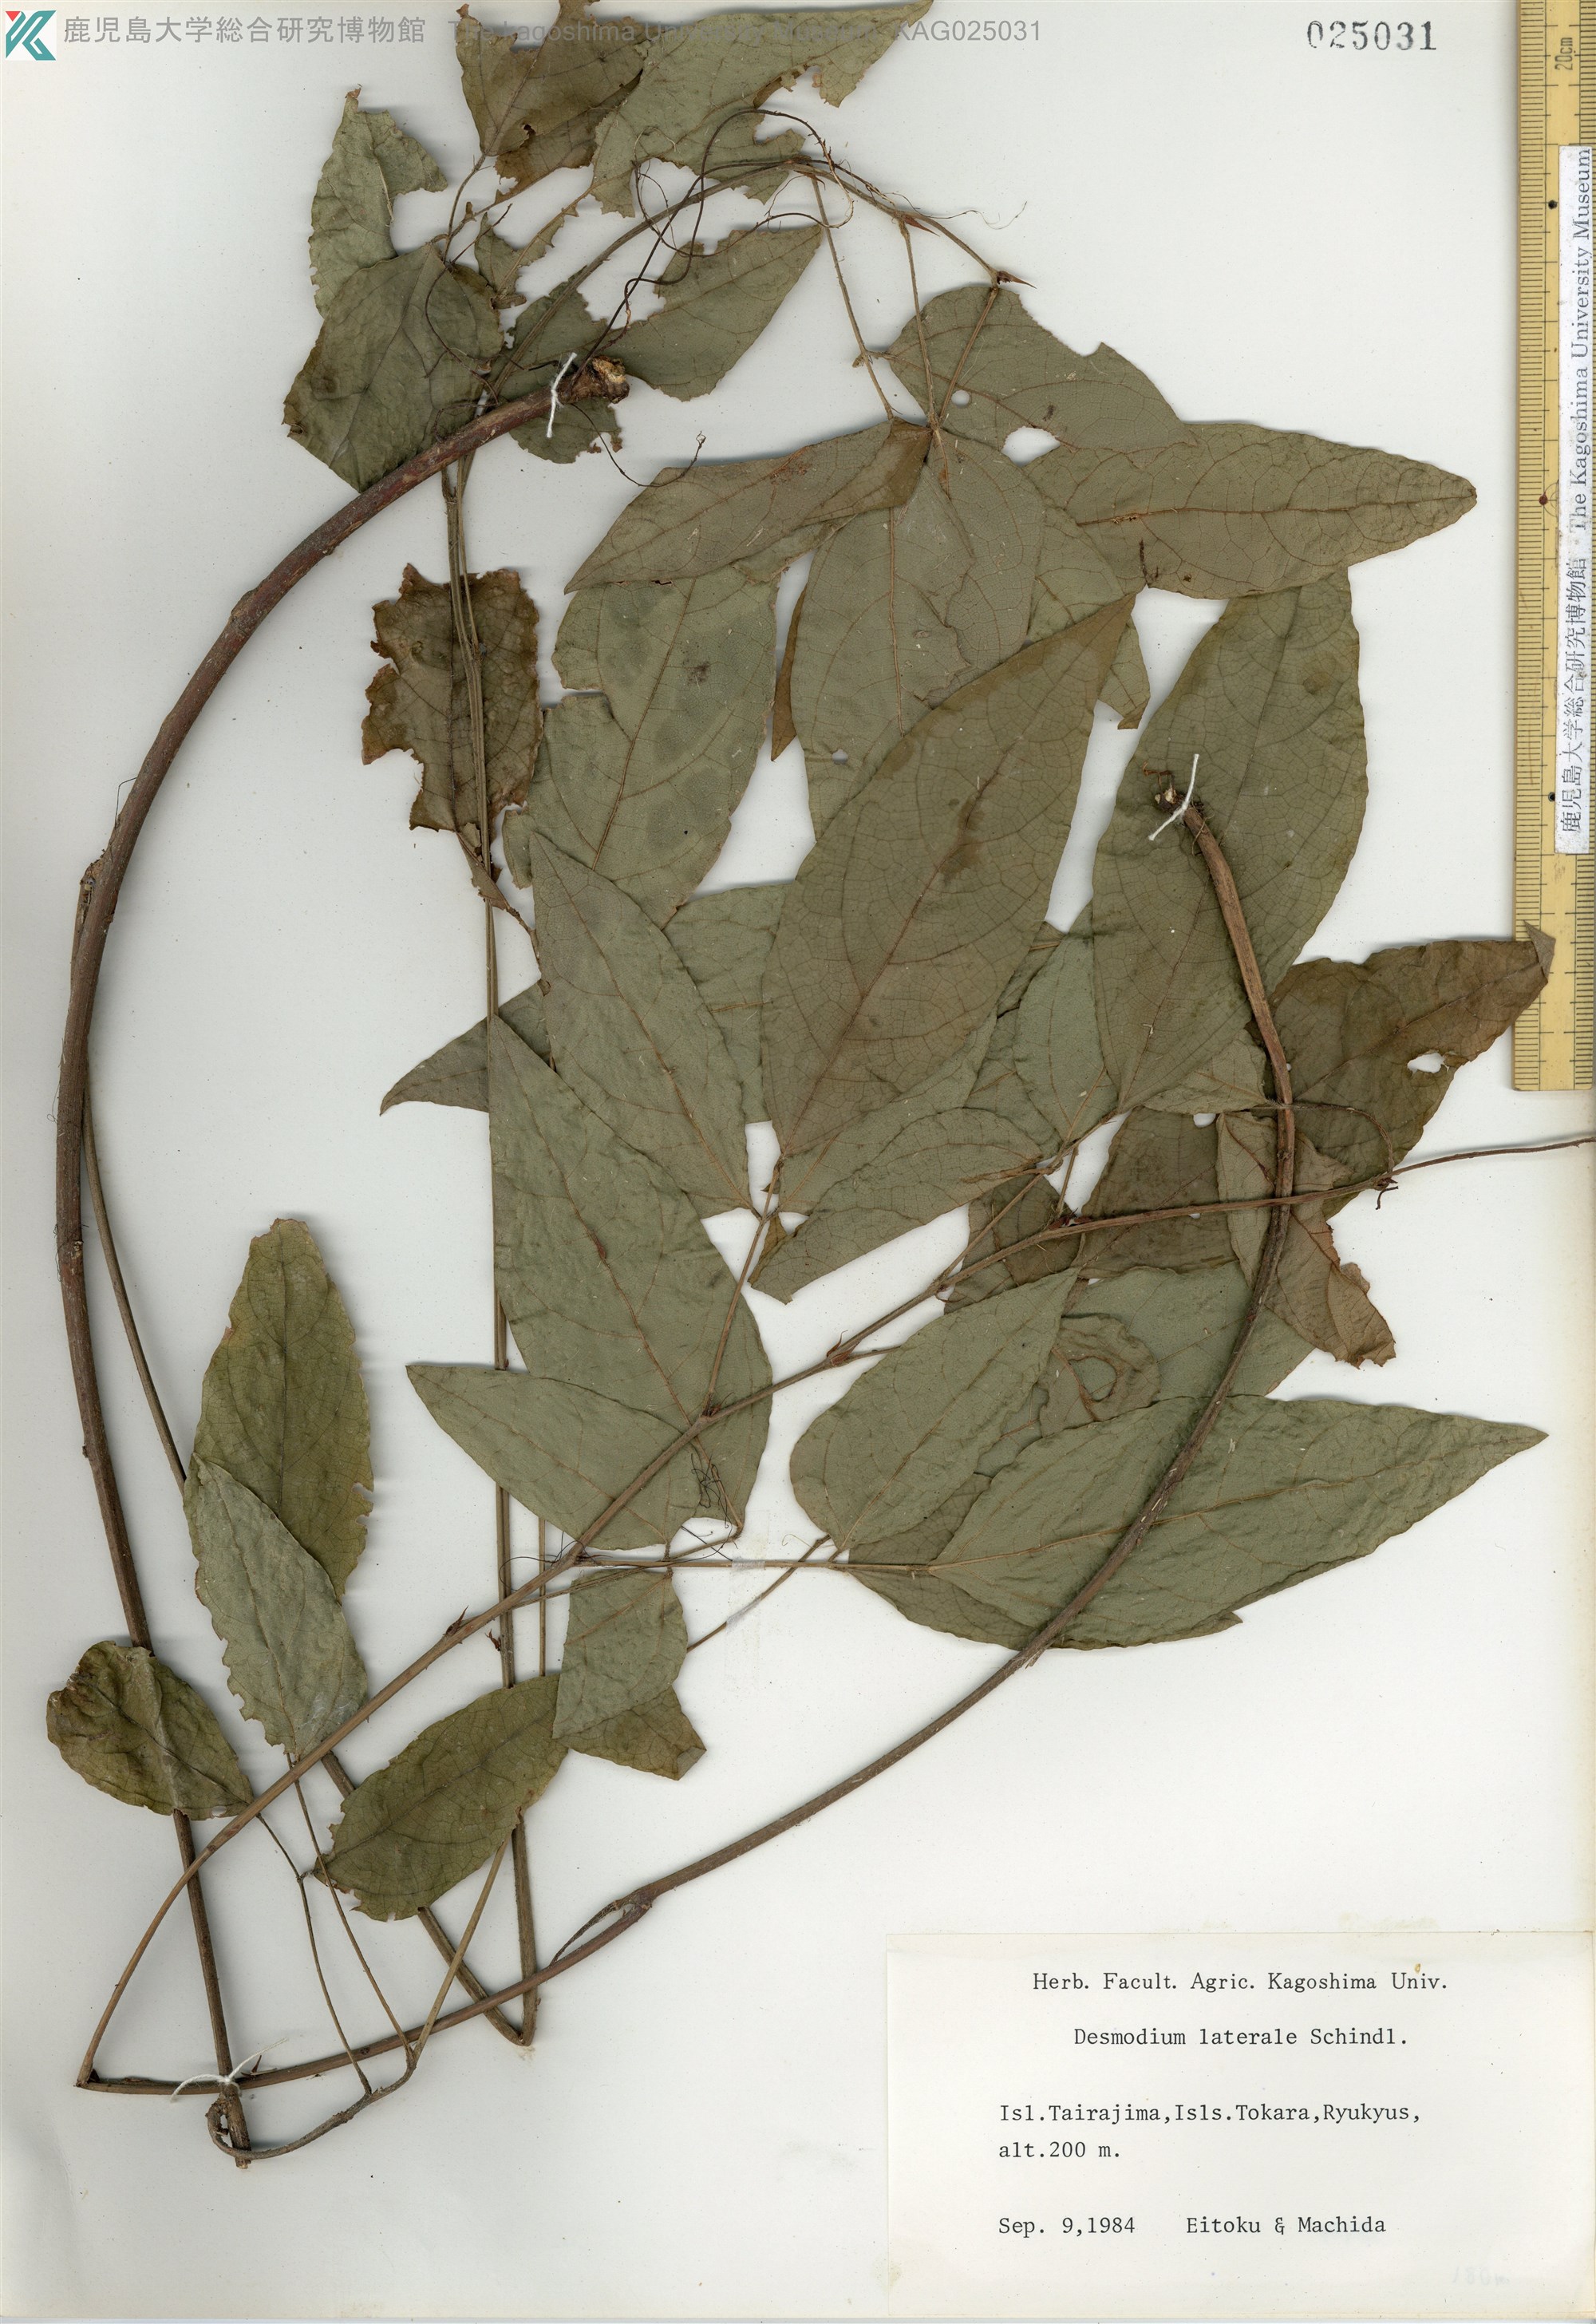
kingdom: Plantae
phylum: Tracheophyta
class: Magnoliopsida
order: Fabales
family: Fabaceae
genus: Hylodesmum
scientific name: Hylodesmum laterale
